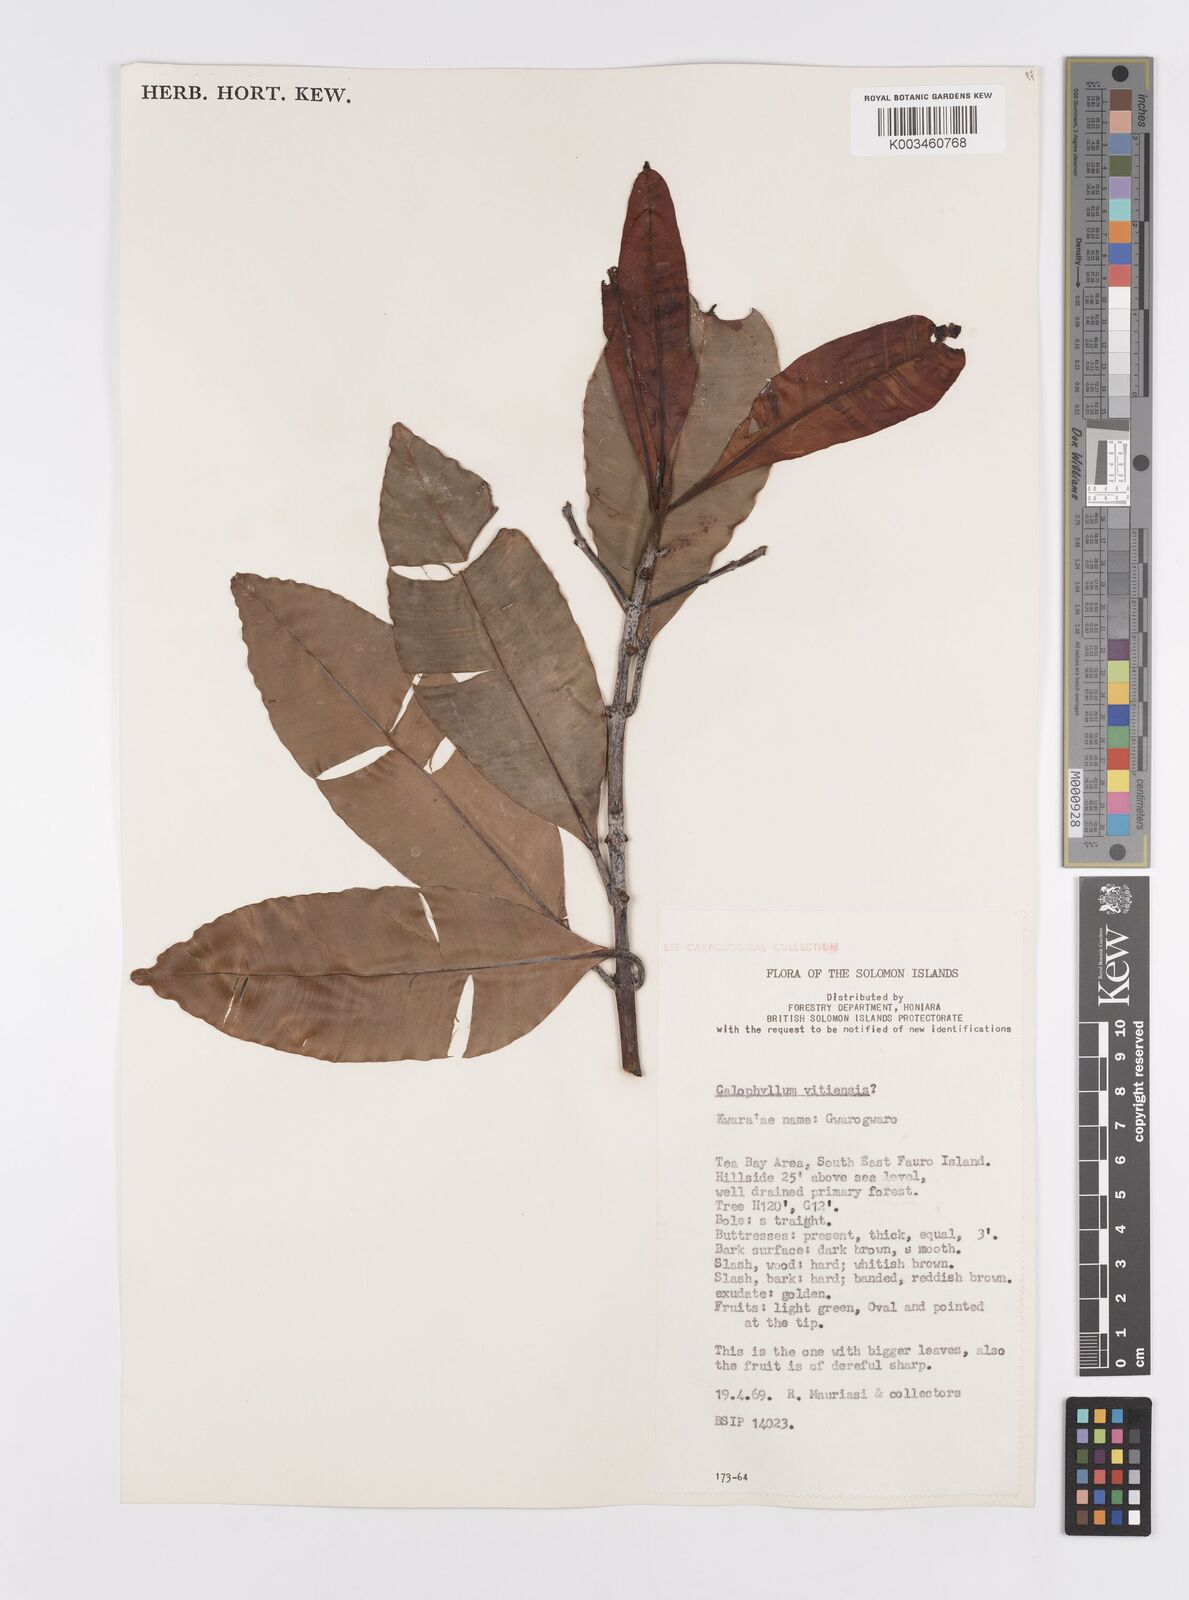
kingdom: Plantae
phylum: Tracheophyta
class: Magnoliopsida
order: Malpighiales
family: Calophyllaceae
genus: Calophyllum
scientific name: Calophyllum vitiense
